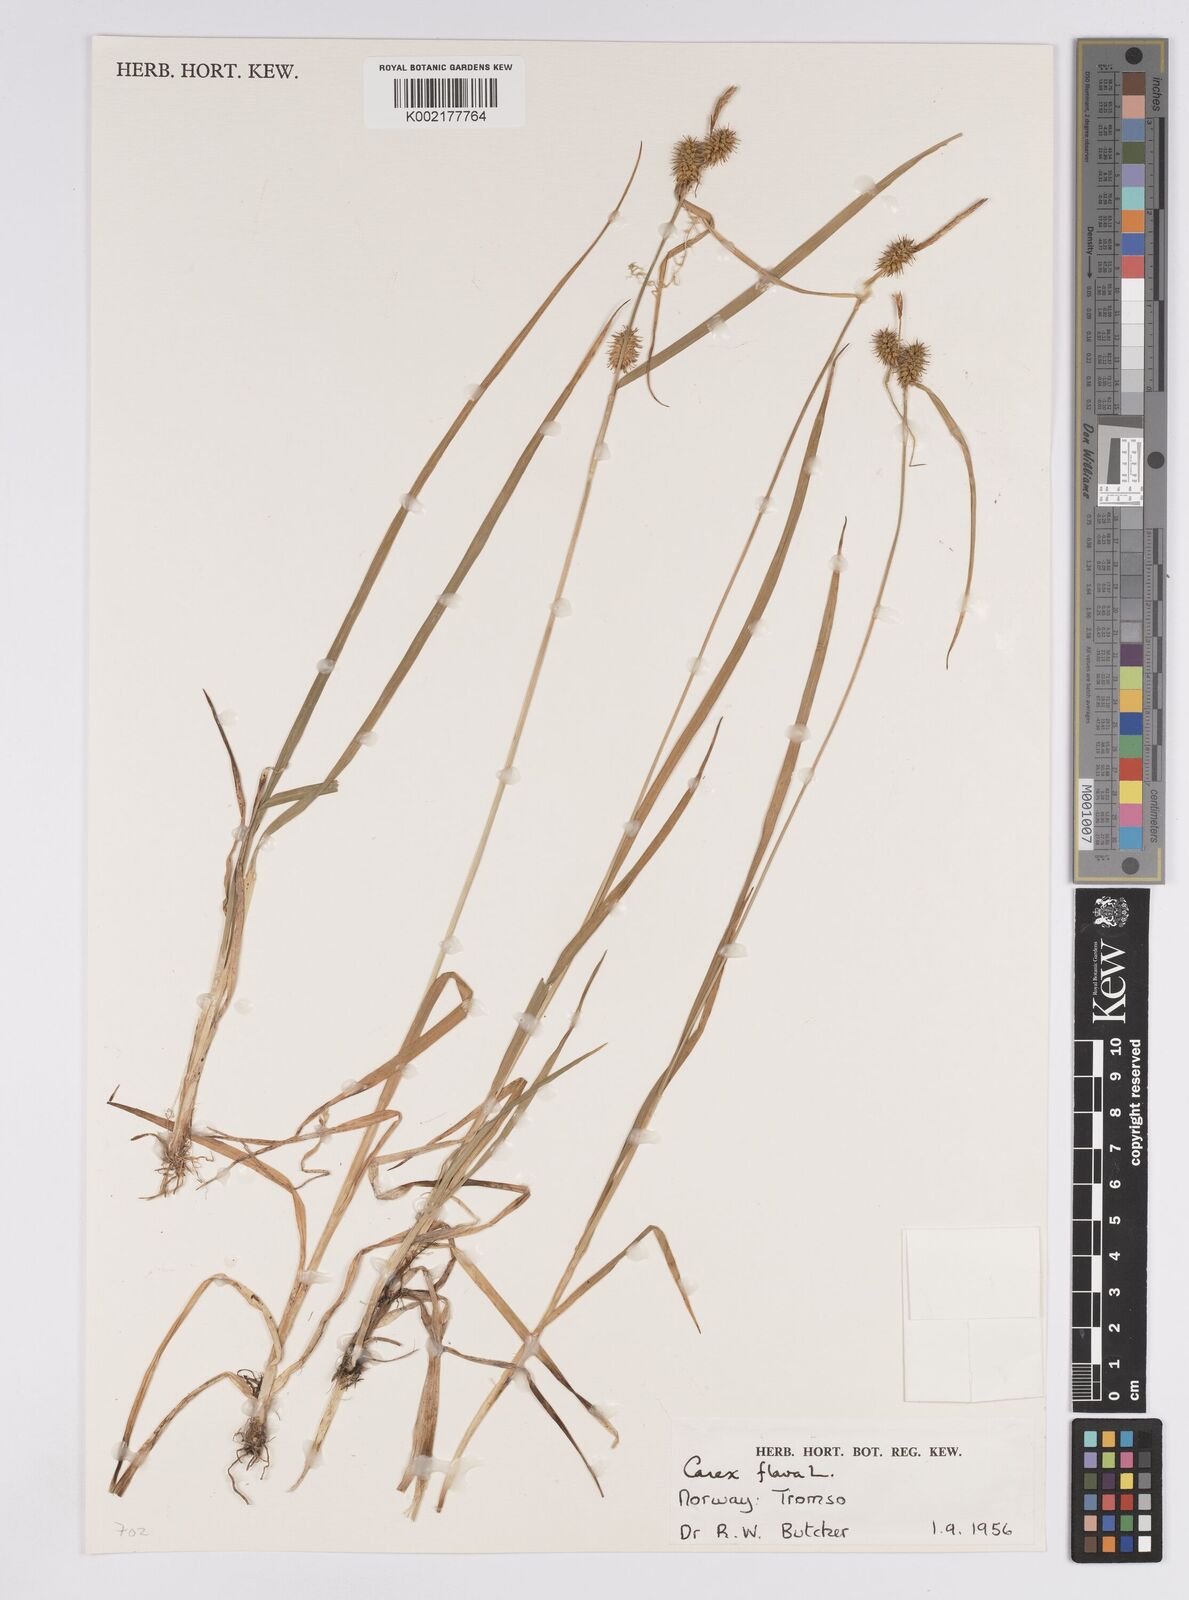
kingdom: Plantae
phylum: Tracheophyta
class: Liliopsida
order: Poales
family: Cyperaceae
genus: Carex
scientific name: Carex flava
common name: Large yellow-sedge
